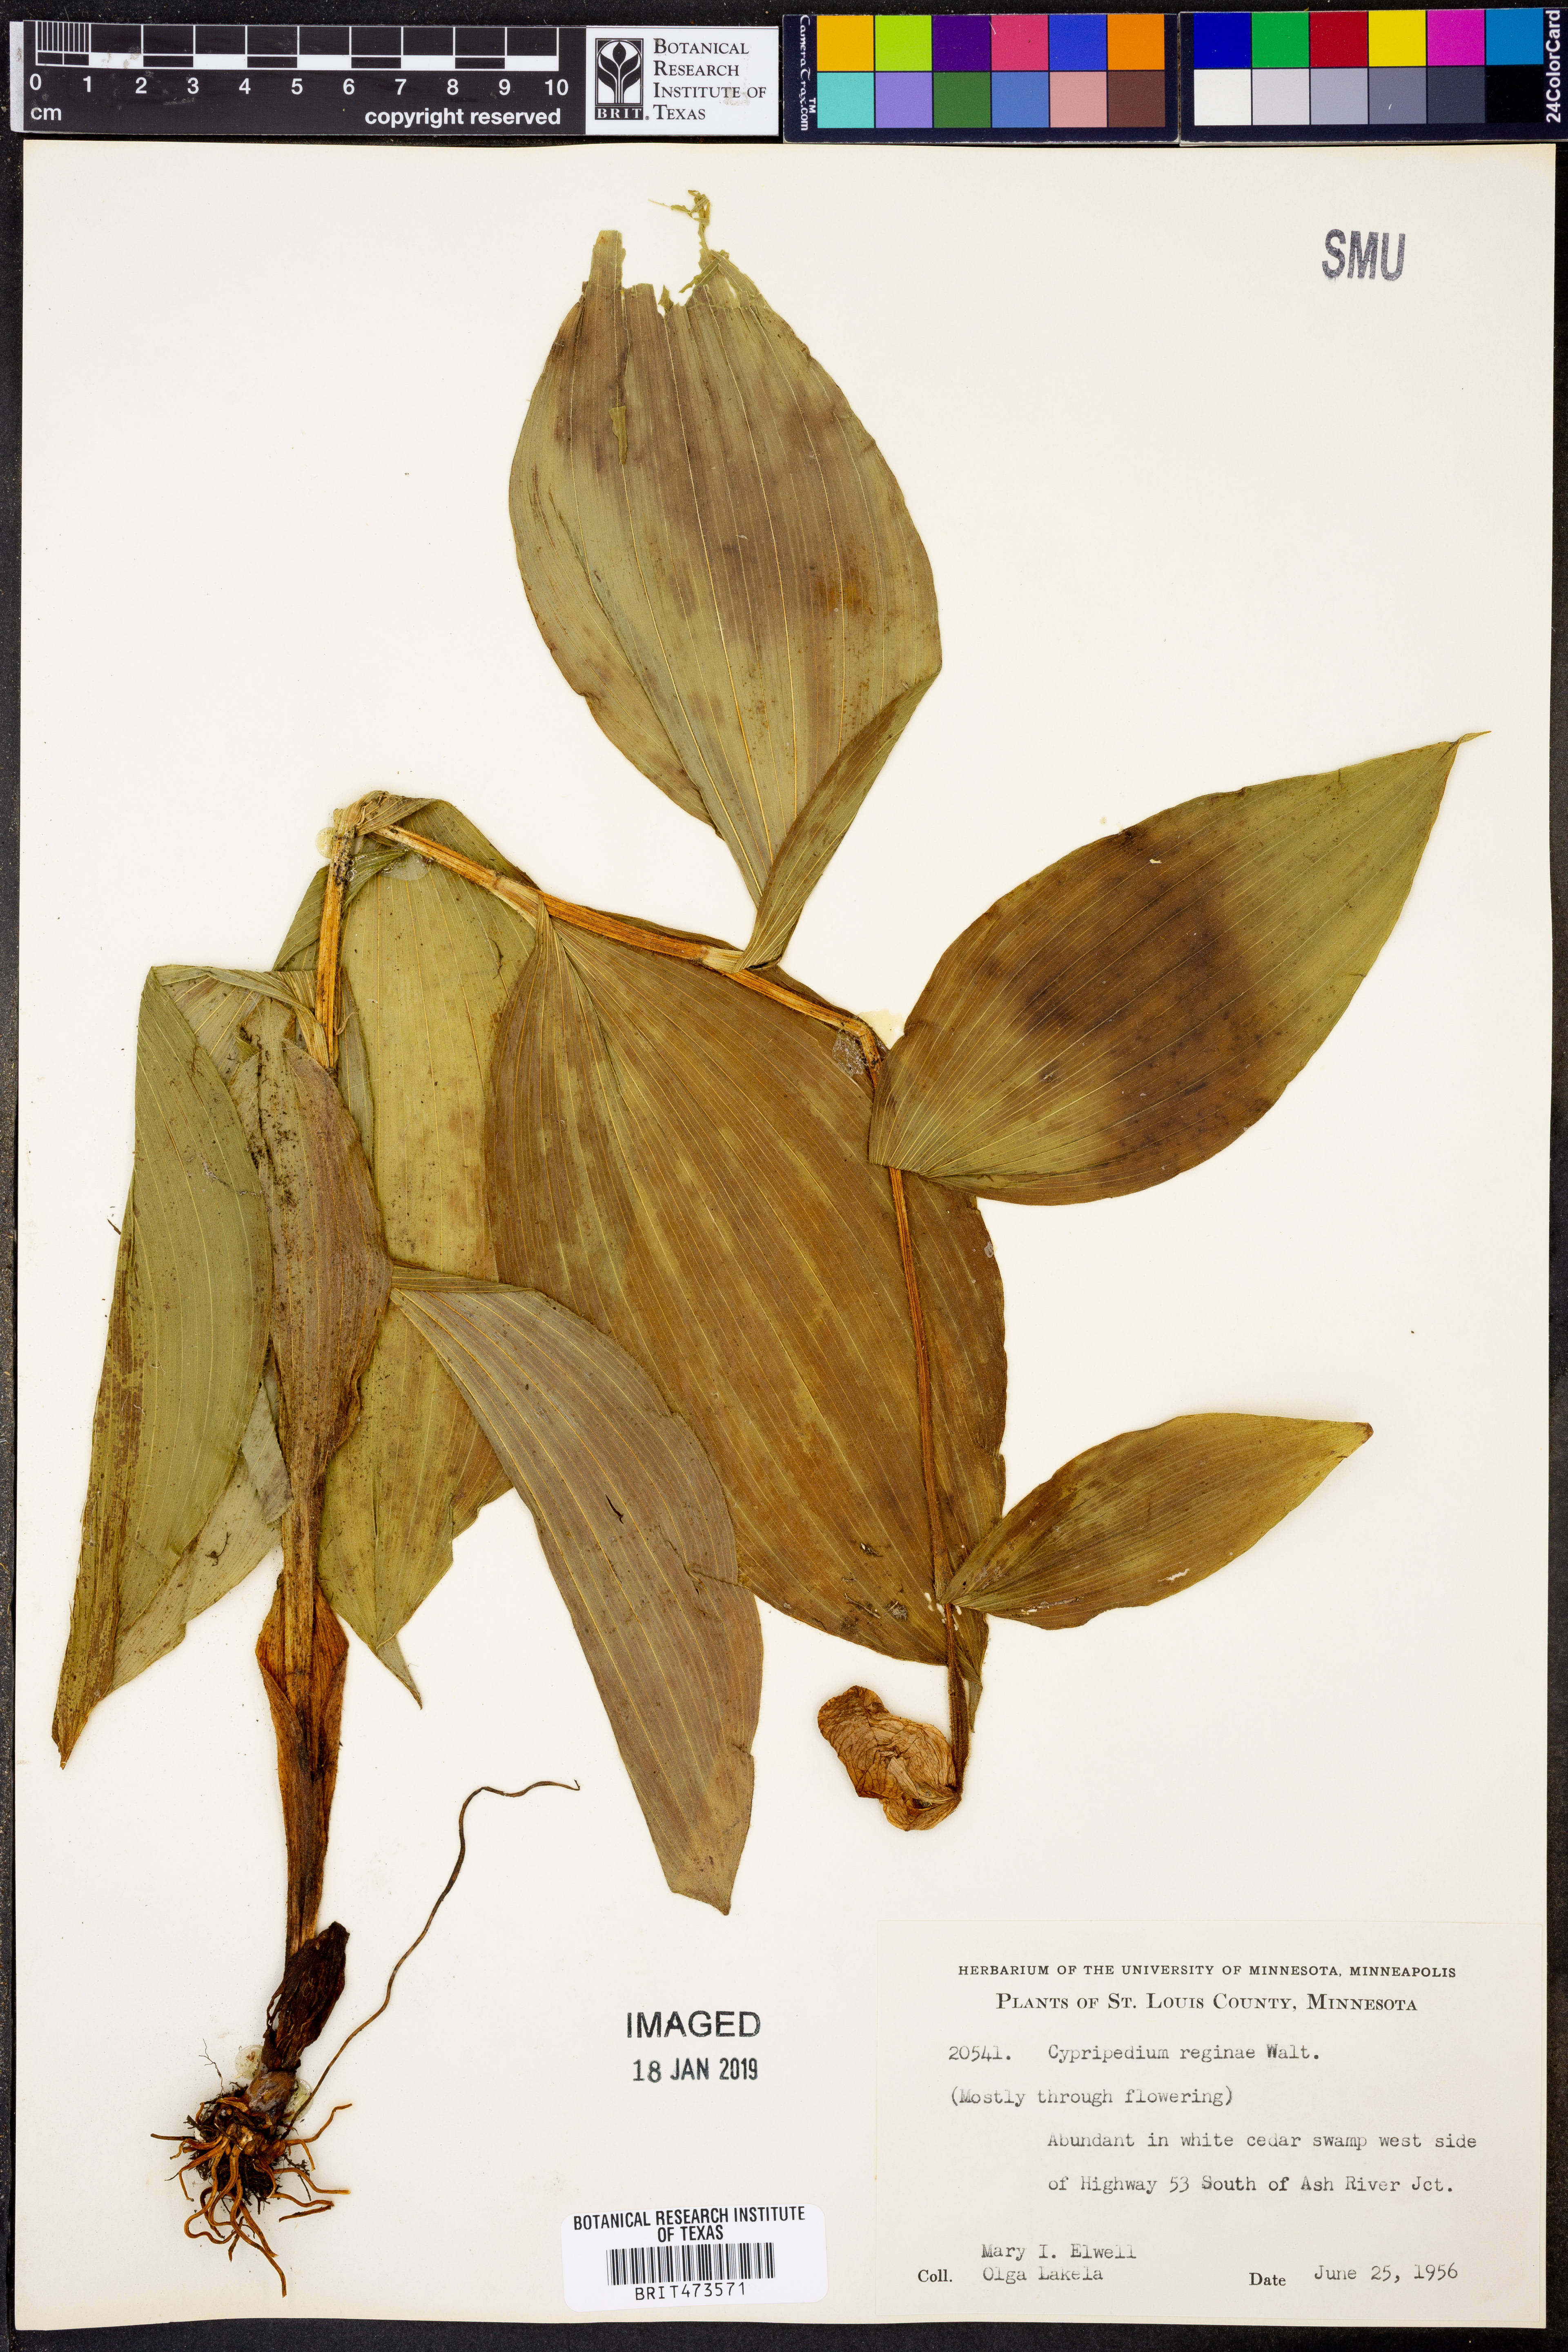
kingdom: Plantae
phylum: Tracheophyta
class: Liliopsida
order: Asparagales
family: Orchidaceae
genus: Cypripedium
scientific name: Cypripedium reginae
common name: Queen lady's-slipper
